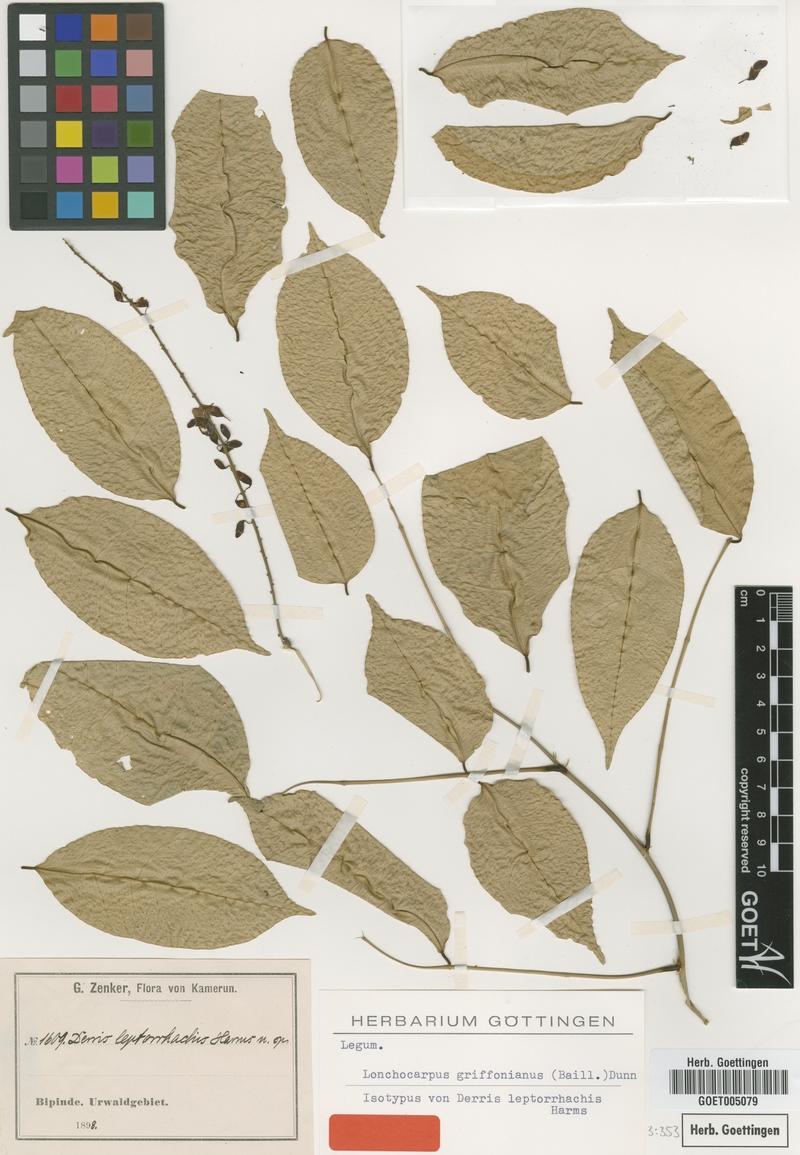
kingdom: Plantae
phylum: Tracheophyta
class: Magnoliopsida
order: Fabales
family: Fabaceae
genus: Millettia
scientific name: Millettia griffoniana
